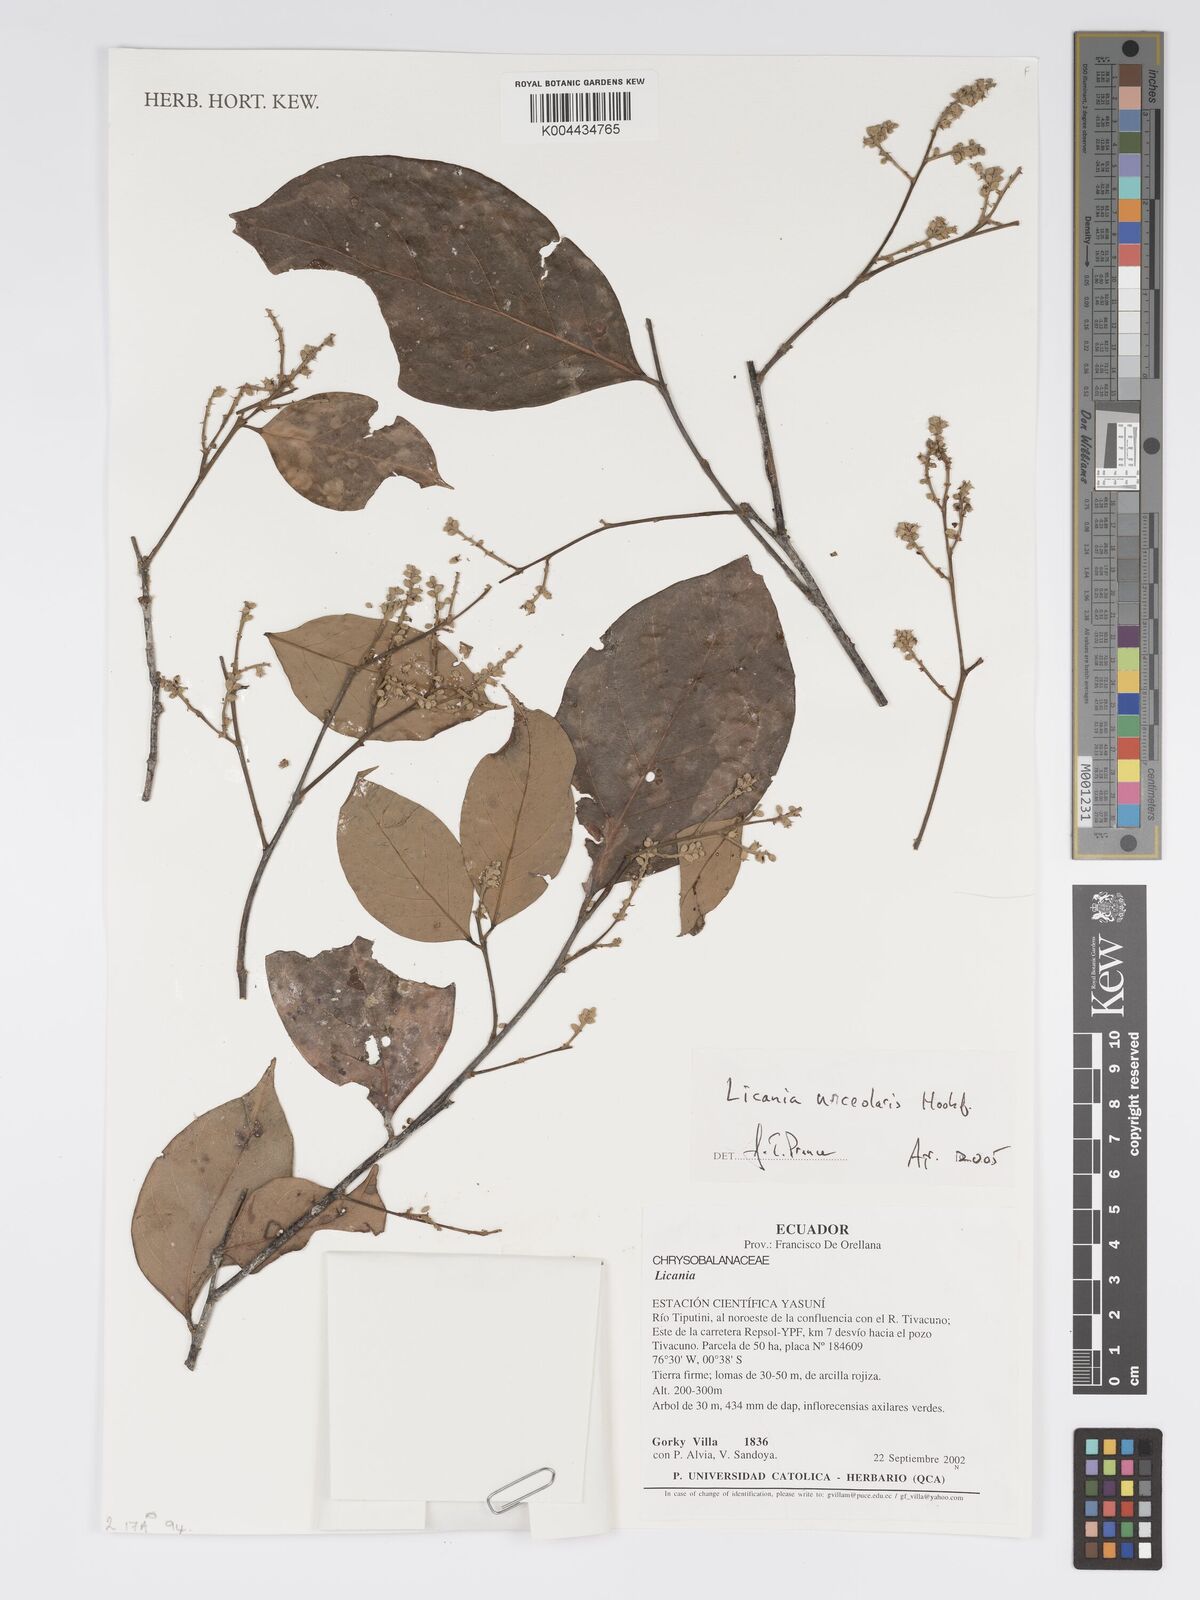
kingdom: Plantae
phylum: Tracheophyta
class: Magnoliopsida
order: Malpighiales
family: Chrysobalanaceae
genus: Licania
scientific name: Licania urceolaris
